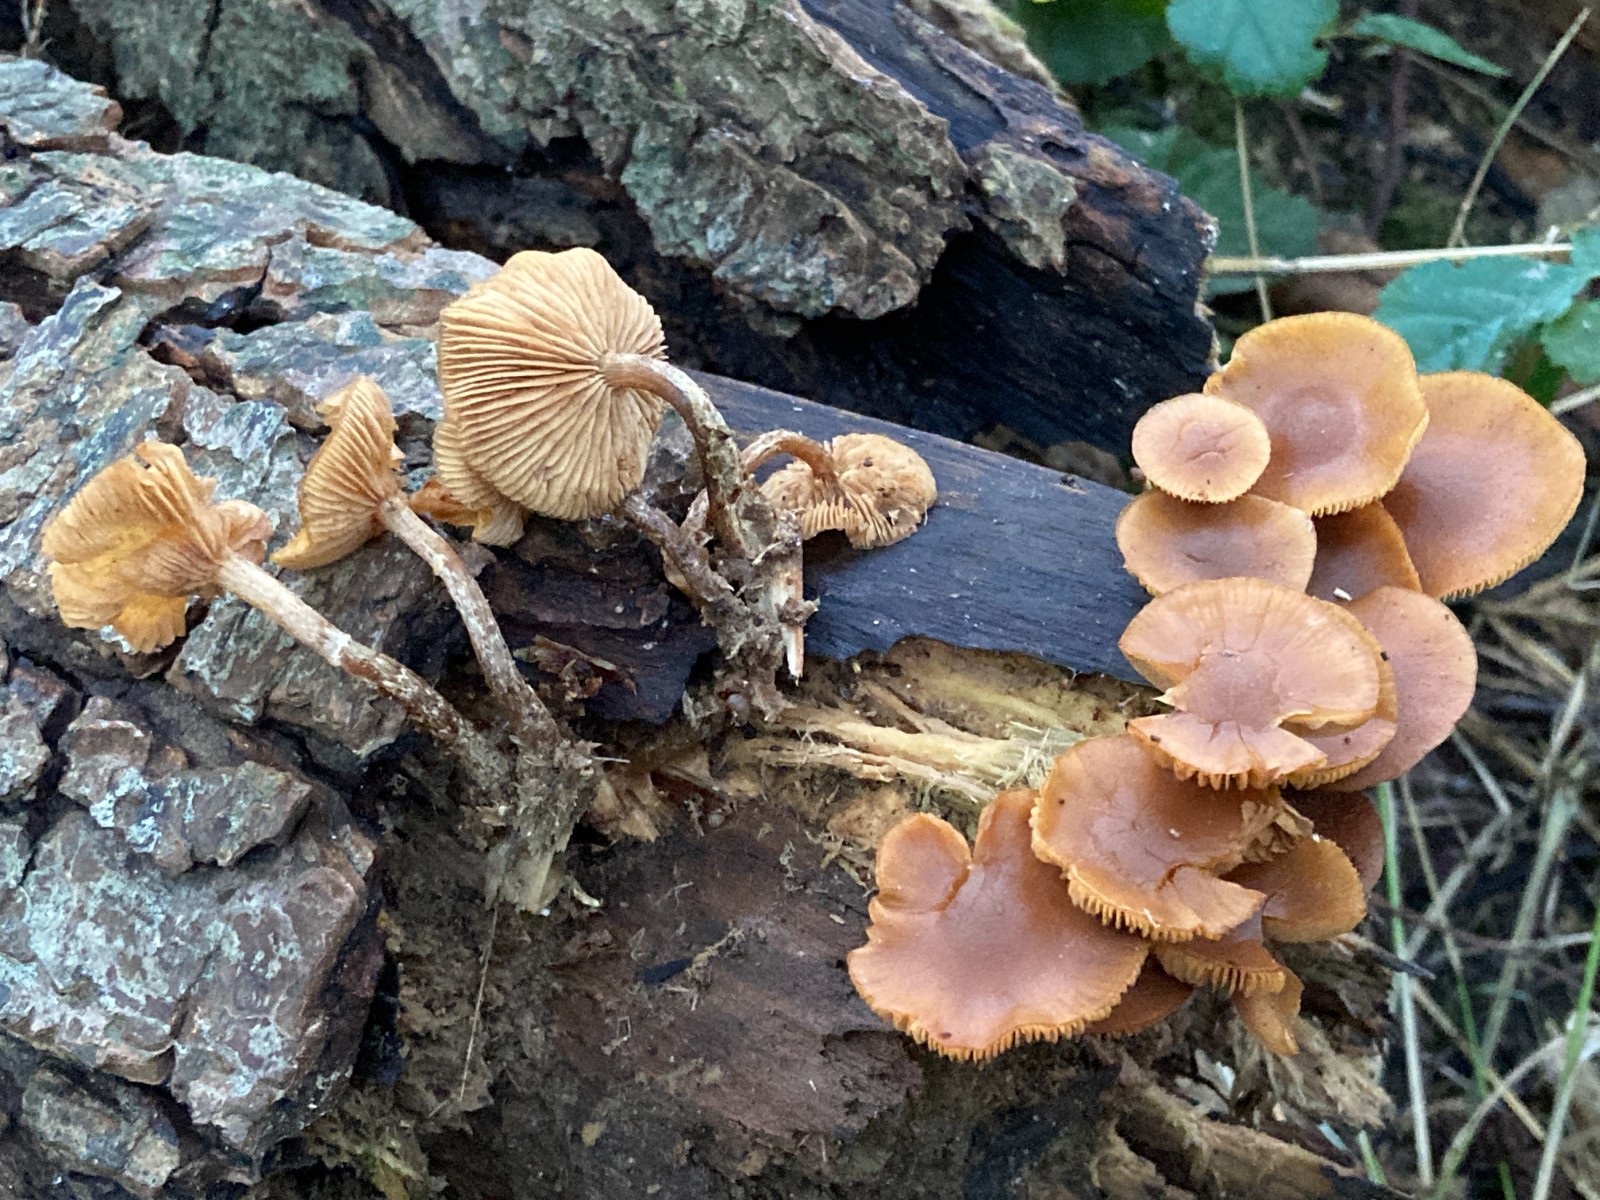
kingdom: Fungi
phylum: Basidiomycota
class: Agaricomycetes
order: Agaricales
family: Hymenogastraceae
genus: Galerina
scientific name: Galerina marginata
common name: randbæltet hjelmhat
